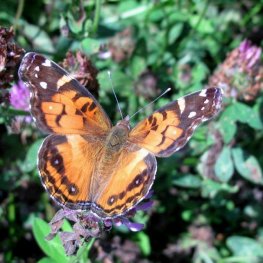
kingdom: Animalia
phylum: Arthropoda
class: Insecta
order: Lepidoptera
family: Nymphalidae
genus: Vanessa
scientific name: Vanessa virginiensis
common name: American Lady
